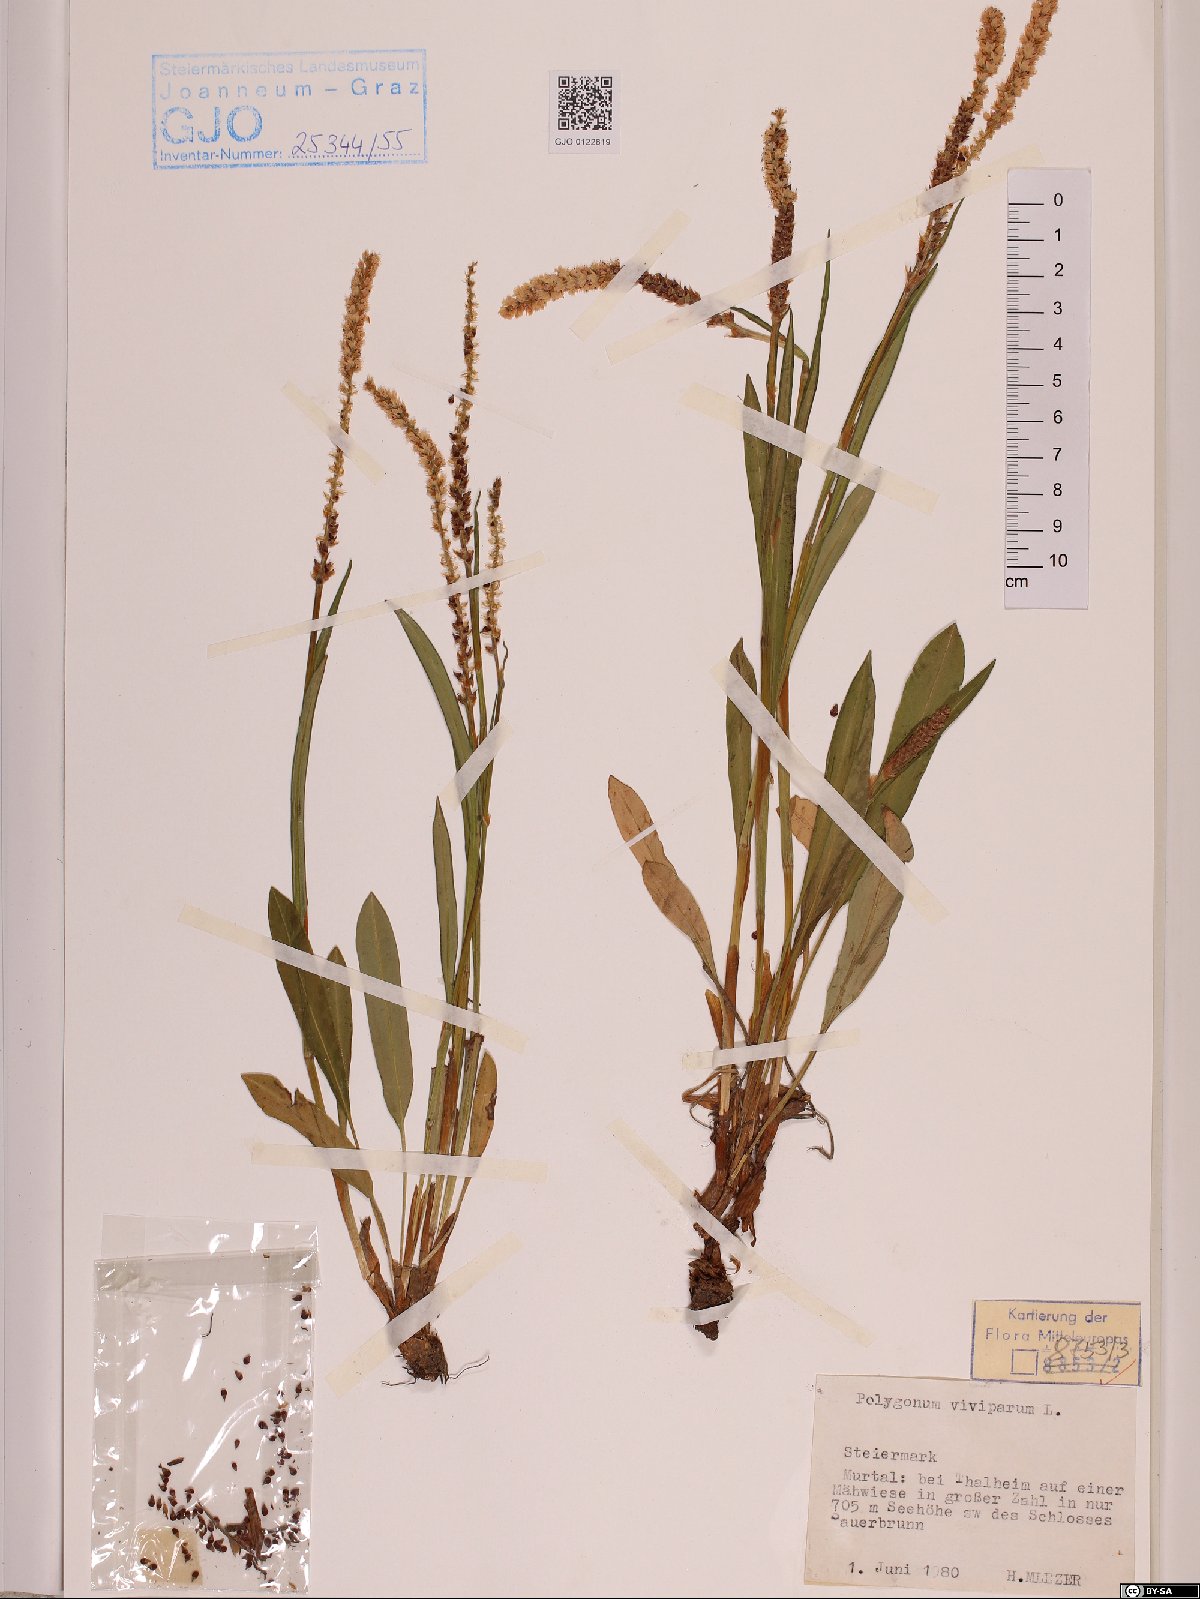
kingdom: Plantae
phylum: Tracheophyta
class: Magnoliopsida
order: Caryophyllales
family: Polygonaceae
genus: Bistorta
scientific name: Bistorta vivipara
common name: Alpine bistort
